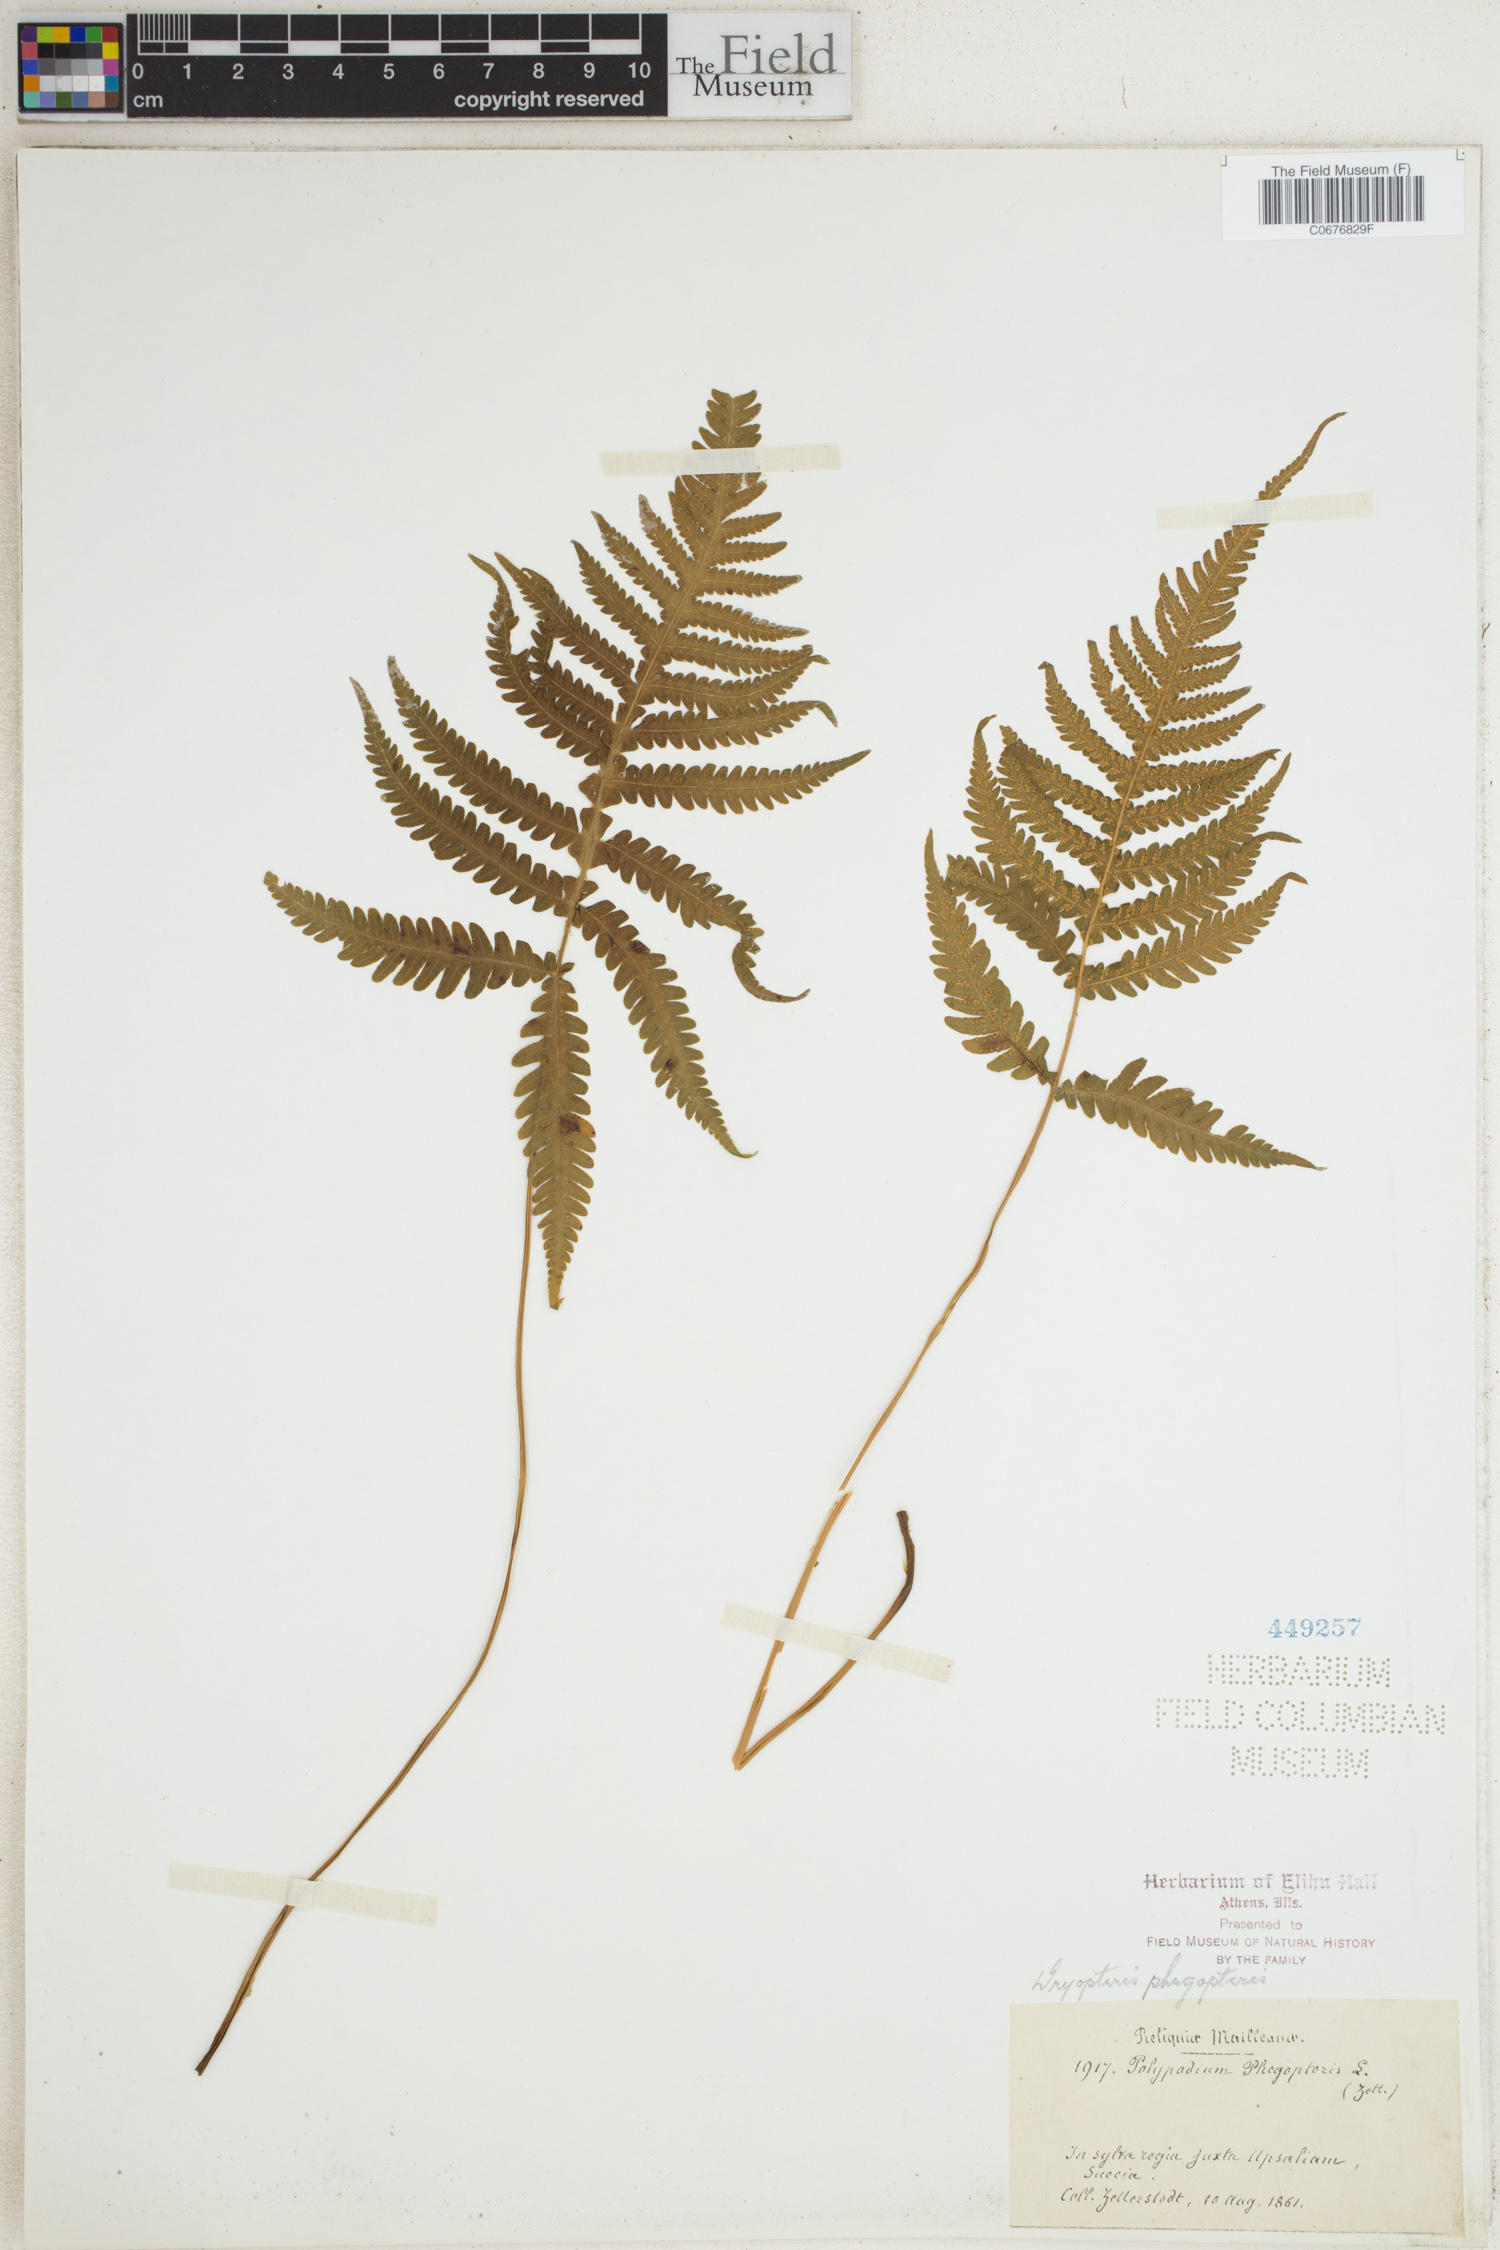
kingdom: Plantae
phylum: Tracheophyta
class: Polypodiopsida
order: Polypodiales
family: Thelypteridaceae
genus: Phegopteris
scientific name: Phegopteris connectilis
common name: Beech fern
